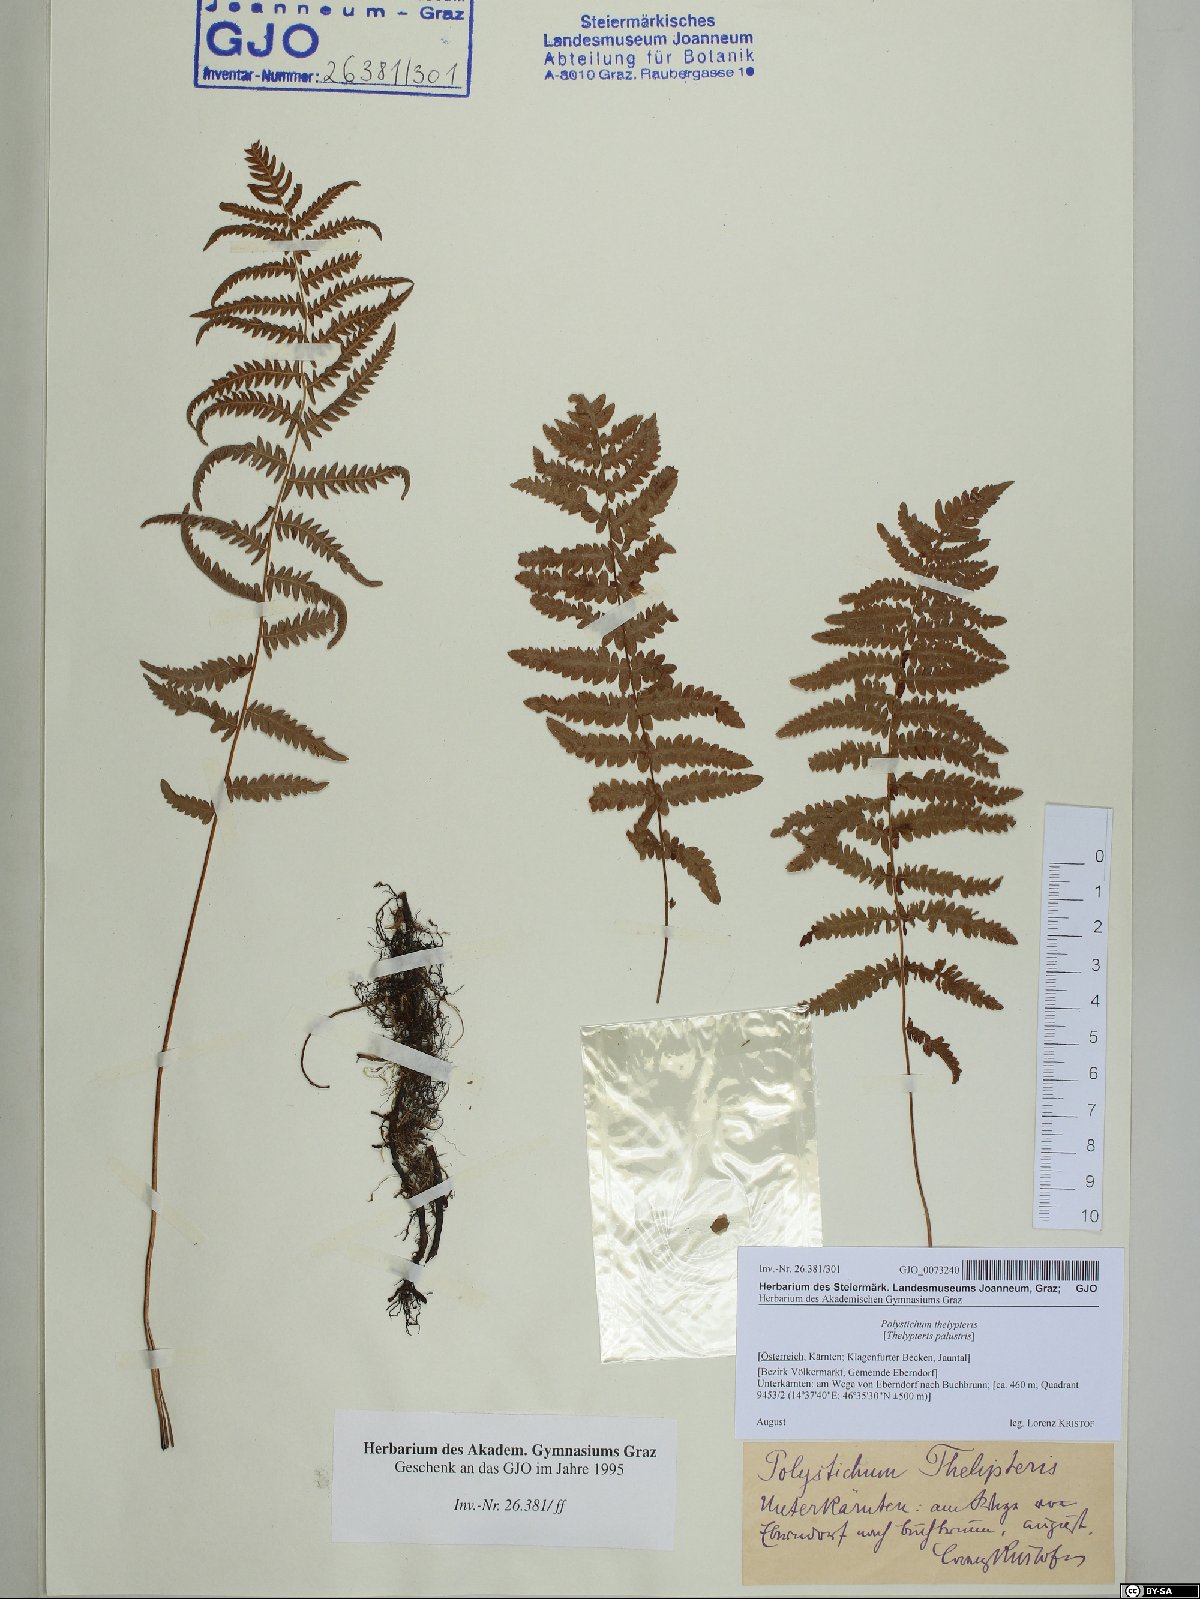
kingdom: Plantae
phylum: Tracheophyta
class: Polypodiopsida
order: Polypodiales
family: Thelypteridaceae
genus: Thelypteris
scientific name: Thelypteris palustris
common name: Marsh fern
